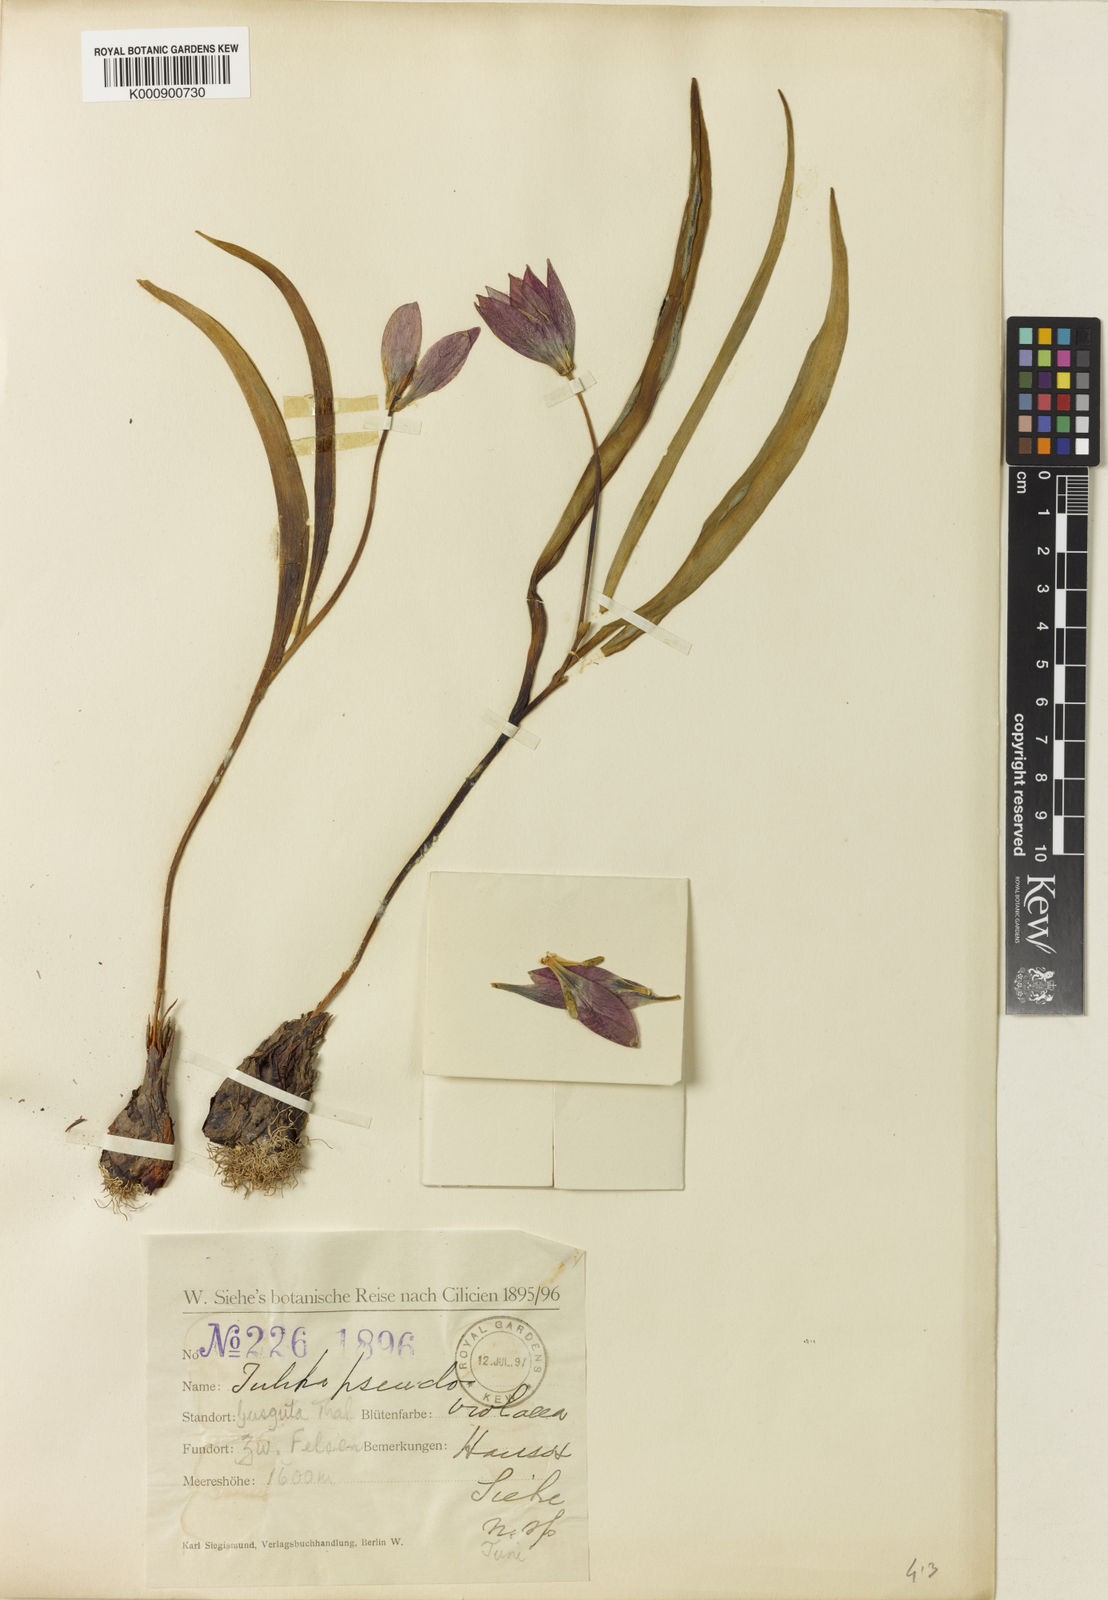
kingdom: Plantae
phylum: Tracheophyta
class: Liliopsida
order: Liliales
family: Liliaceae
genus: Tulipa
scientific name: Tulipa
